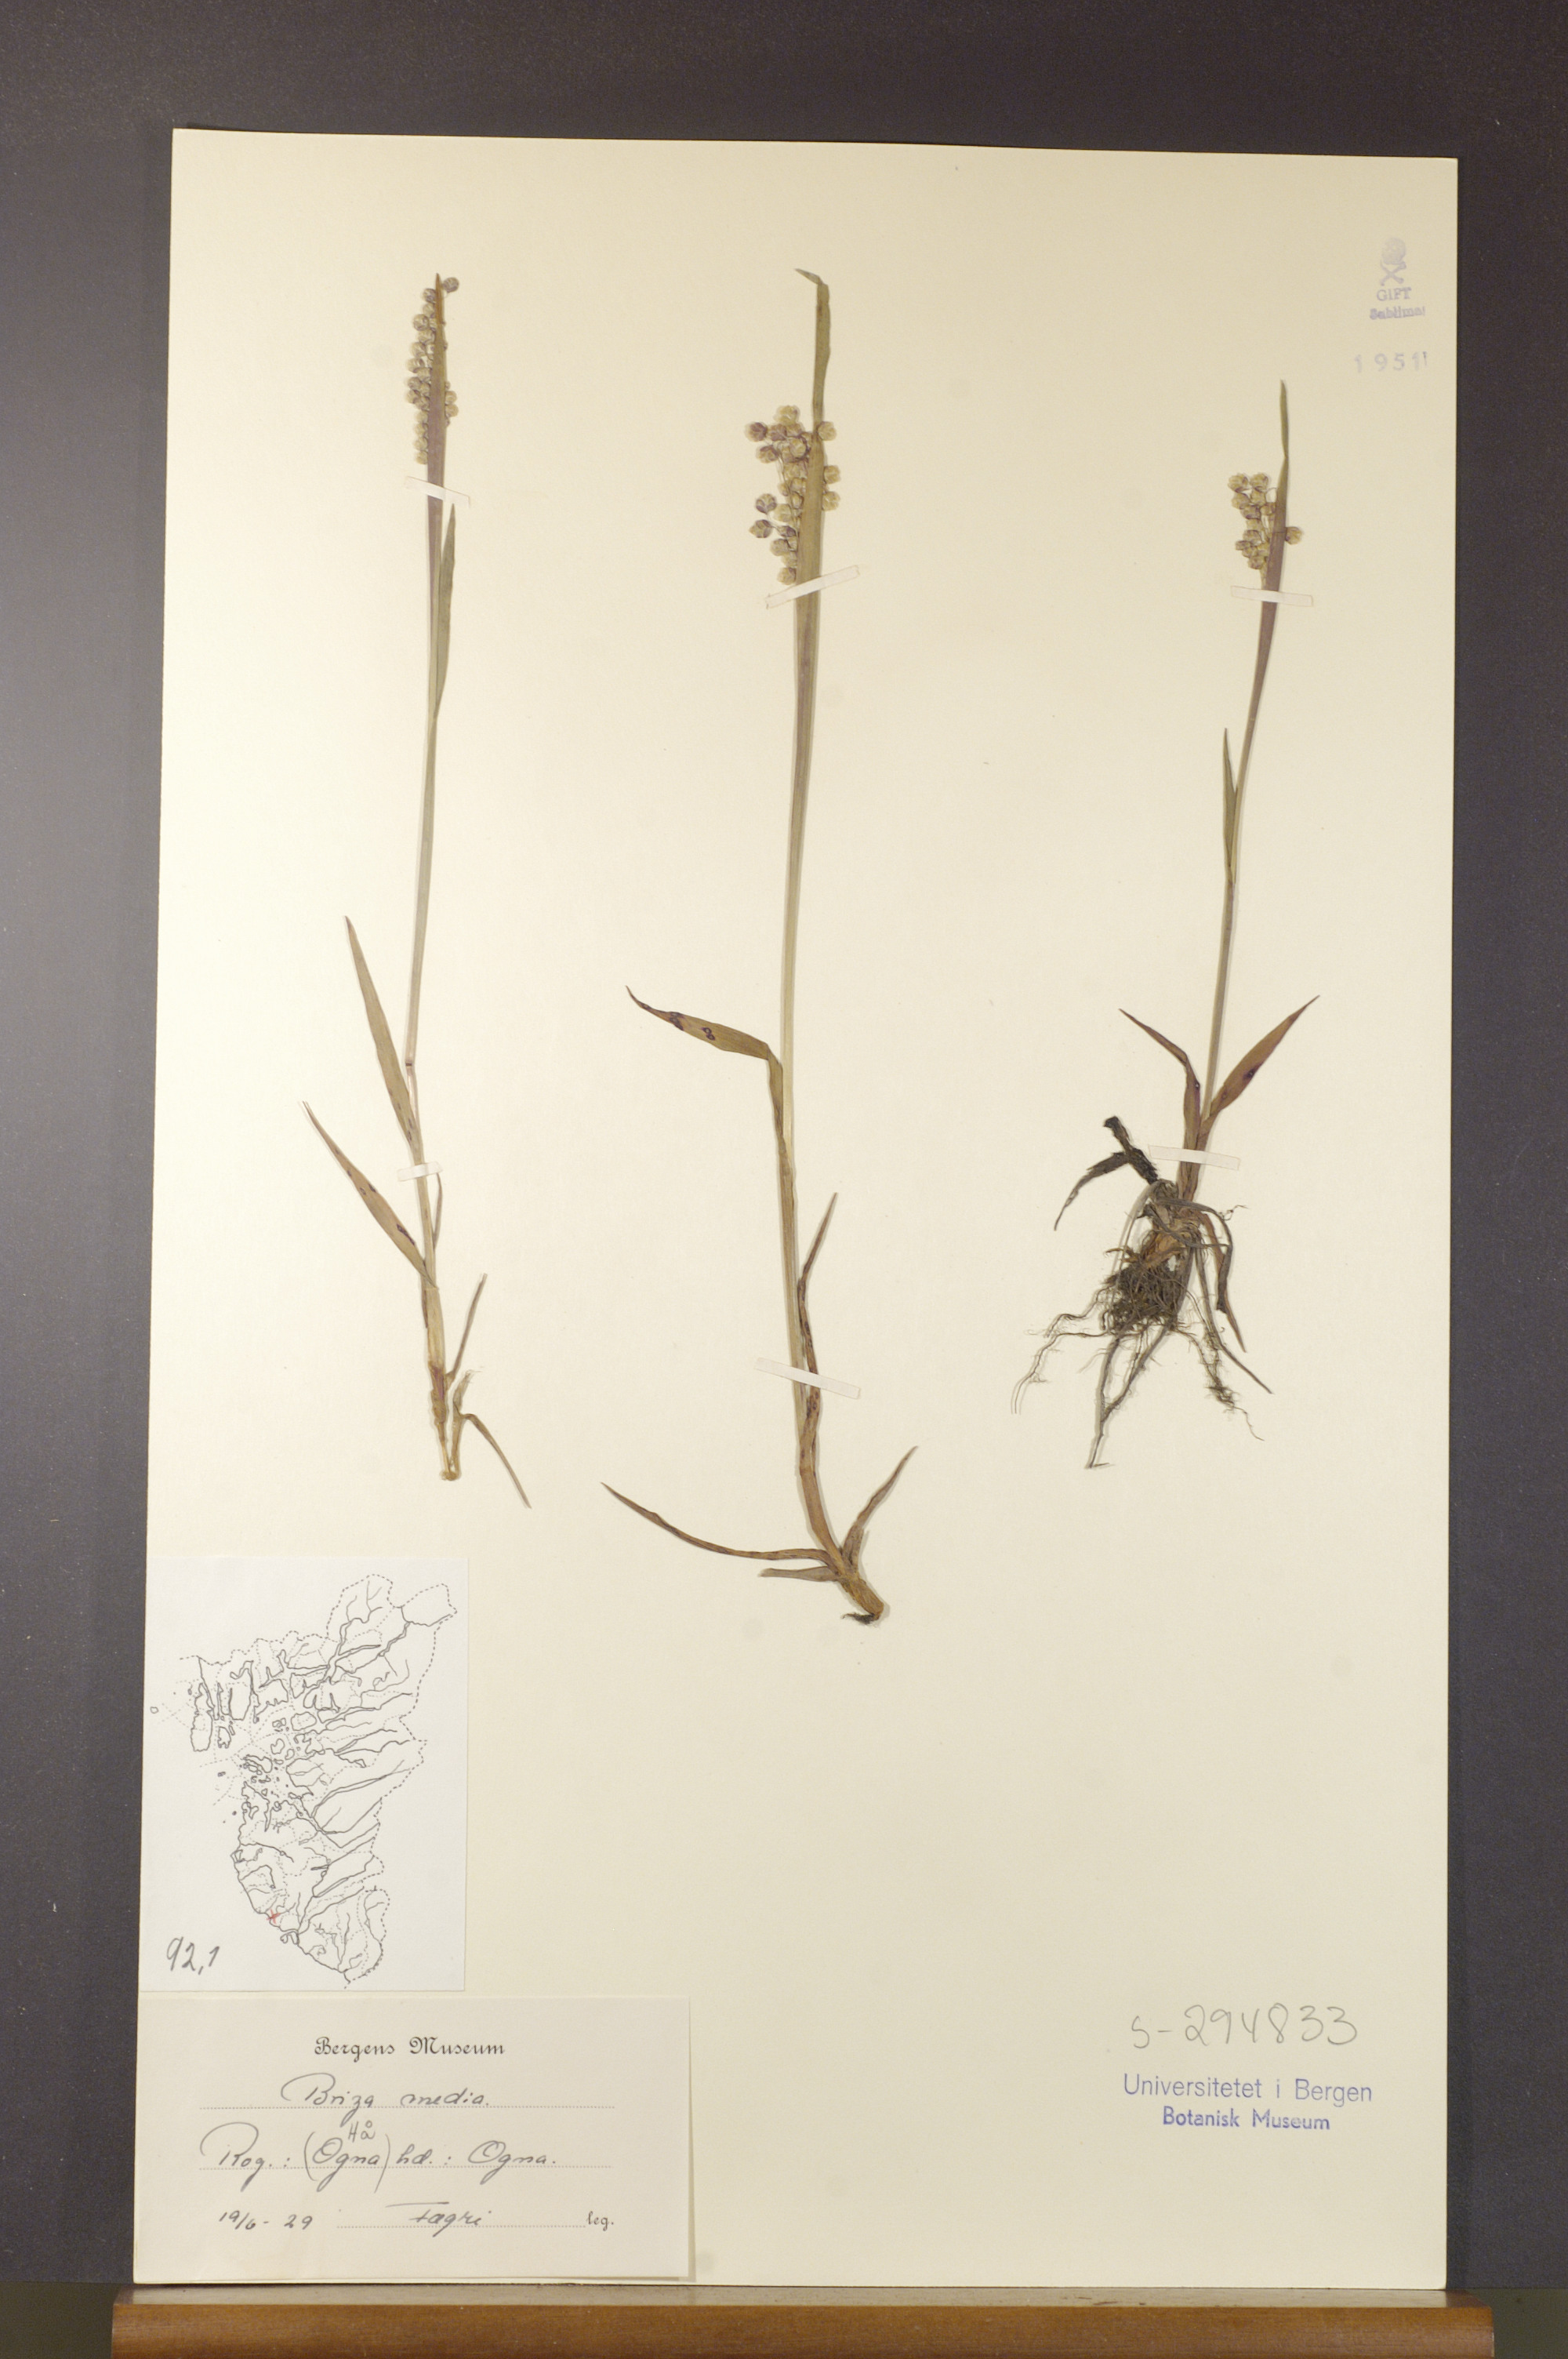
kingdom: Plantae
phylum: Tracheophyta
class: Liliopsida
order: Poales
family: Poaceae
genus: Briza
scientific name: Briza media
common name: Quaking grass
